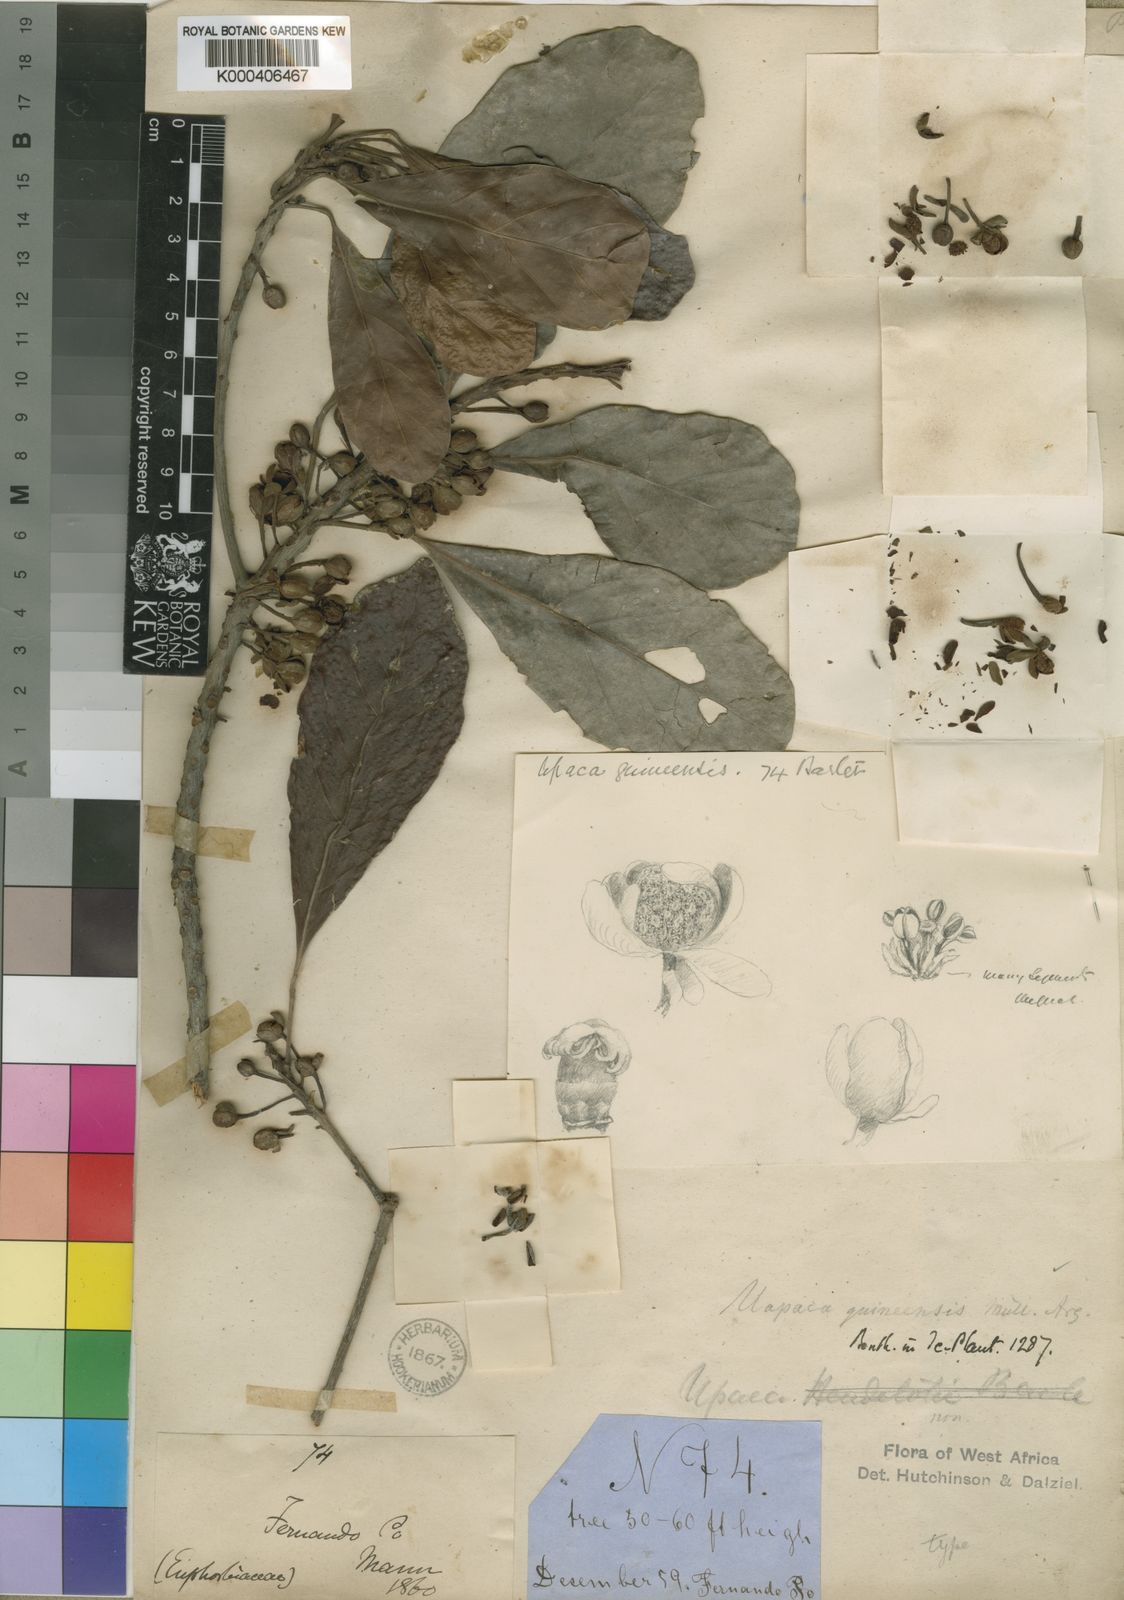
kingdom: Plantae
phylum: Tracheophyta
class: Magnoliopsida
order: Malpighiales
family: Phyllanthaceae
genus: Uapaca
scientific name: Uapaca
